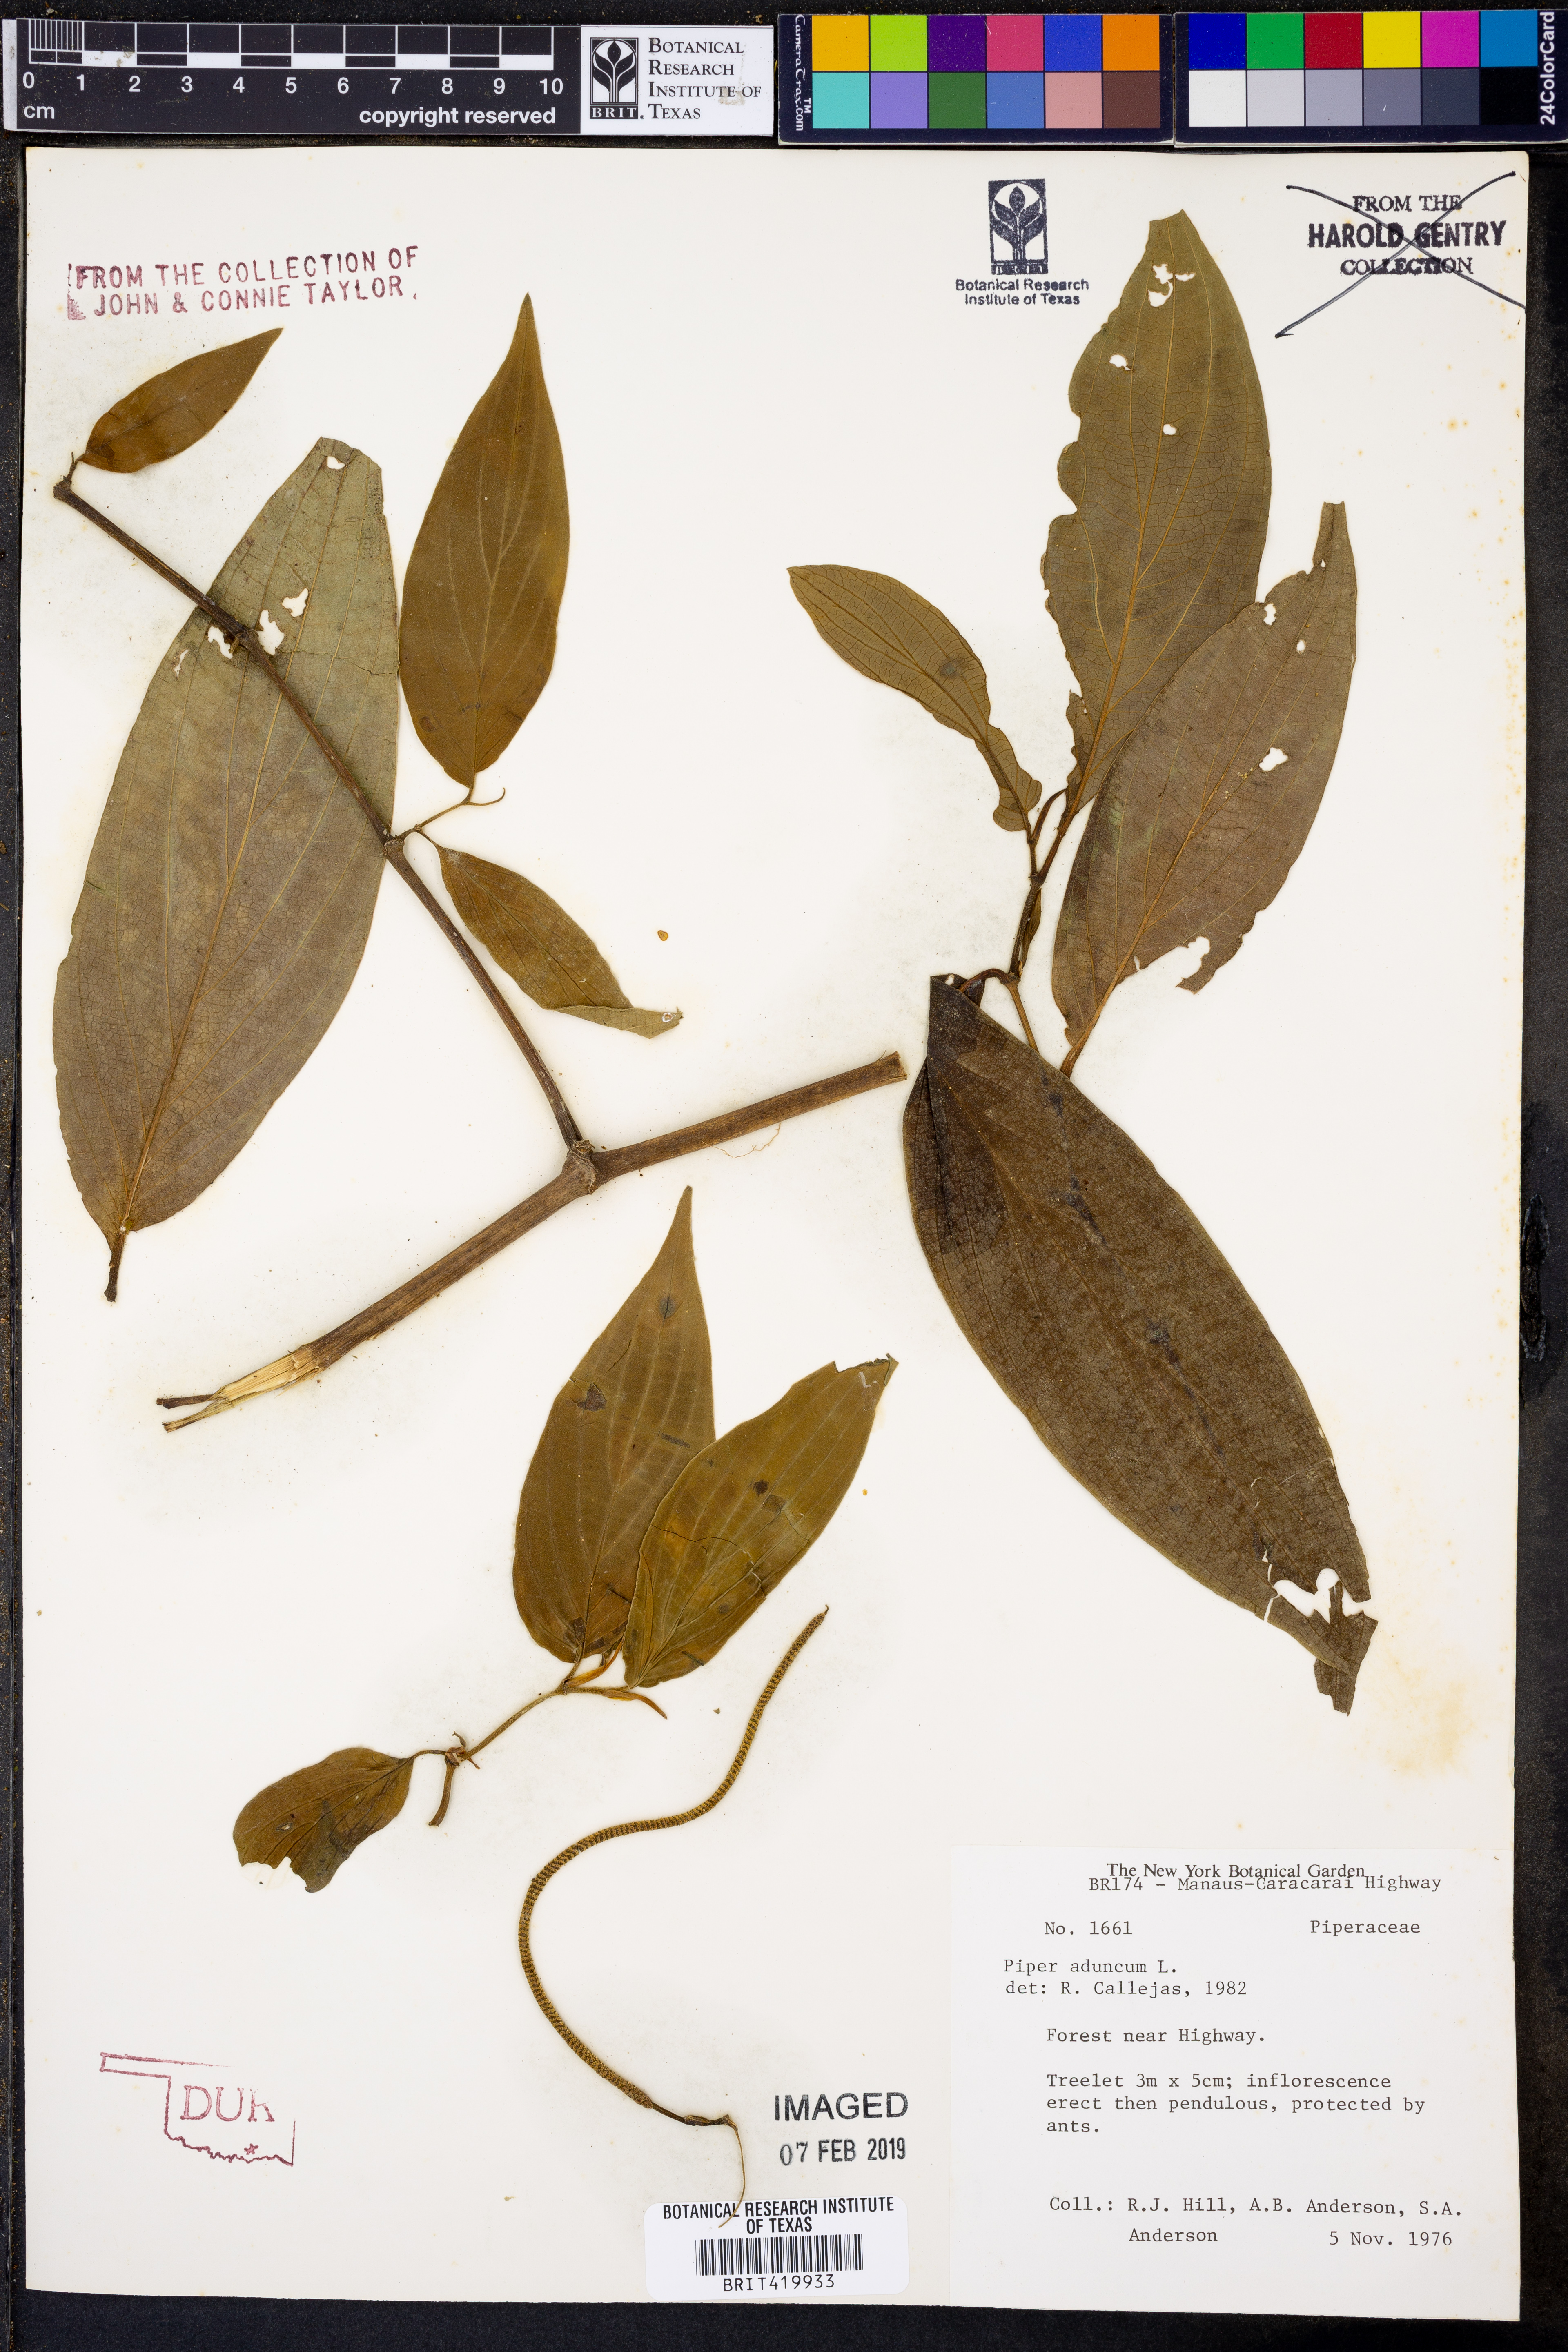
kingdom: Plantae
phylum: Tracheophyta
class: Magnoliopsida
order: Piperales
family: Piperaceae
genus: Piper
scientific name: Piper aduncum
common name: Spiked pepper
